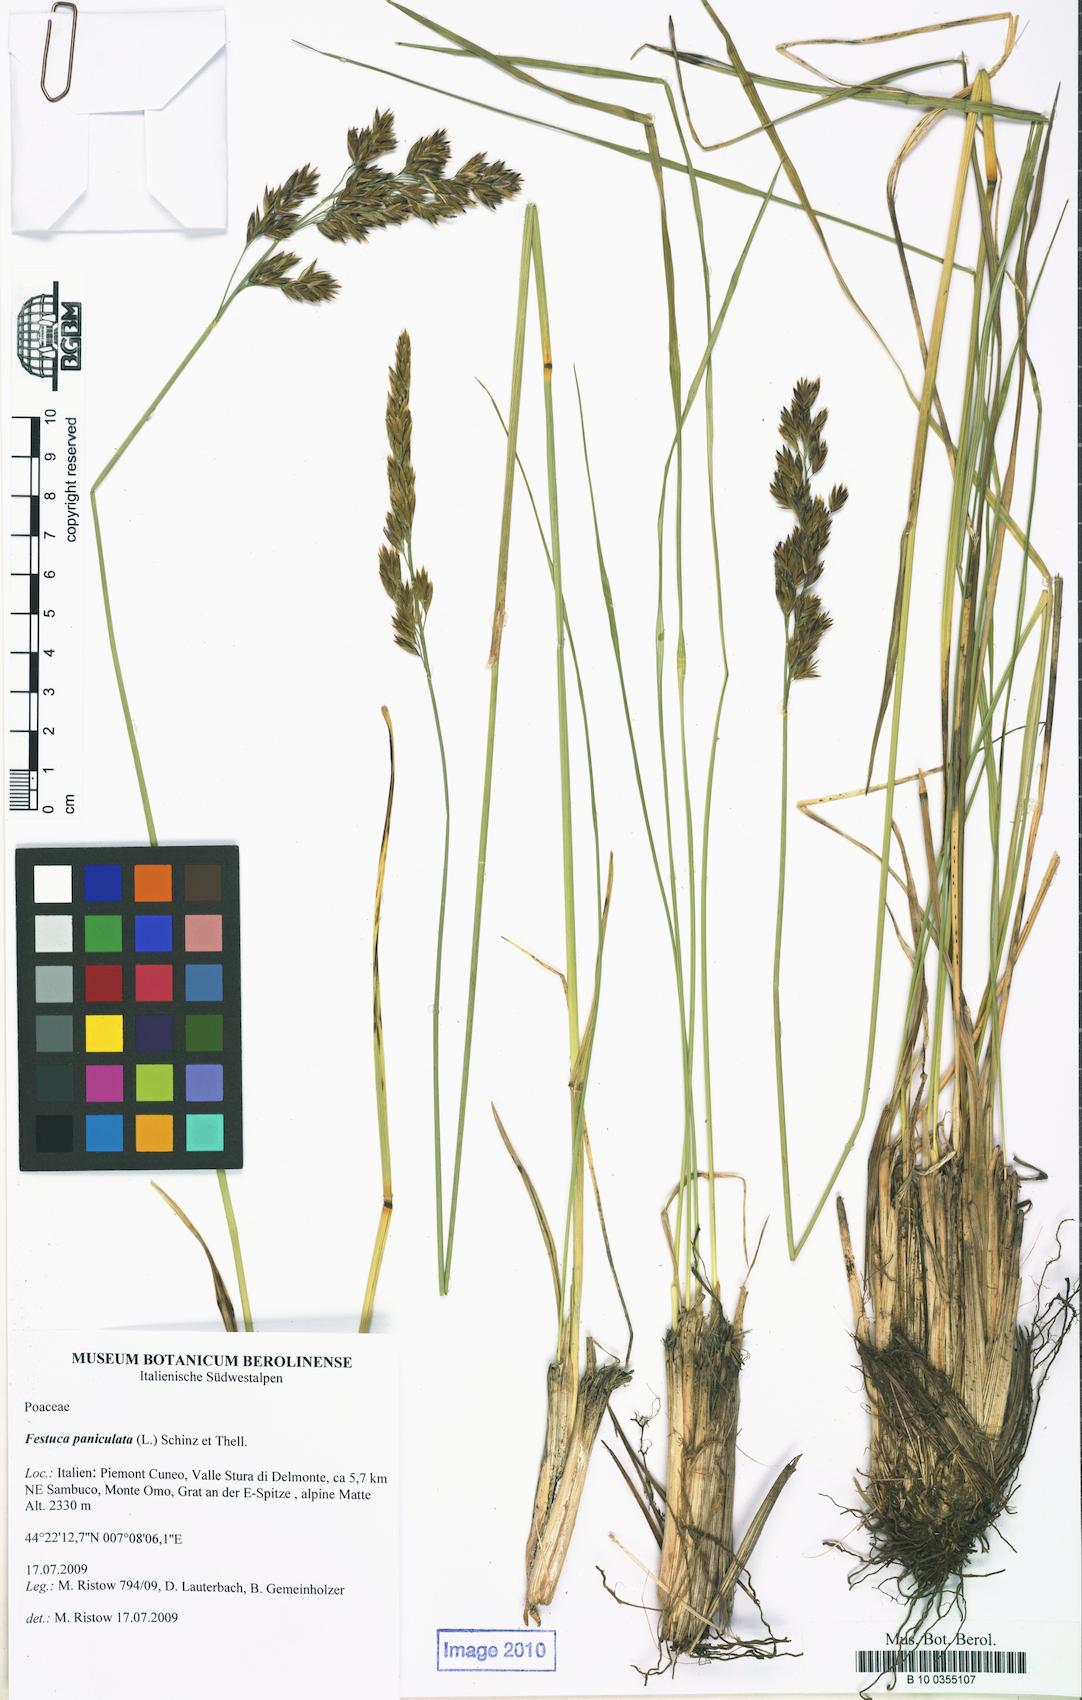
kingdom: Plantae
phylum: Tracheophyta
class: Liliopsida
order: Poales
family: Poaceae
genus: Patzkea
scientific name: Patzkea paniculata
